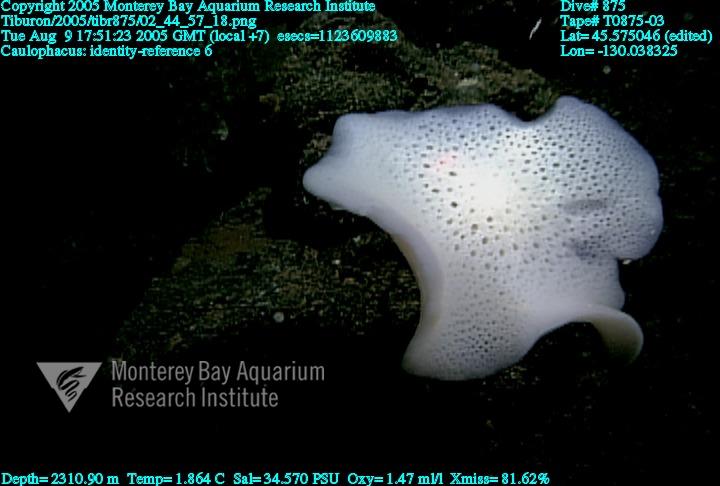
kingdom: Animalia
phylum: Porifera
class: Hexactinellida
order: Lyssacinosida
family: Rossellidae
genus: Caulophacus
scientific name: Caulophacus
